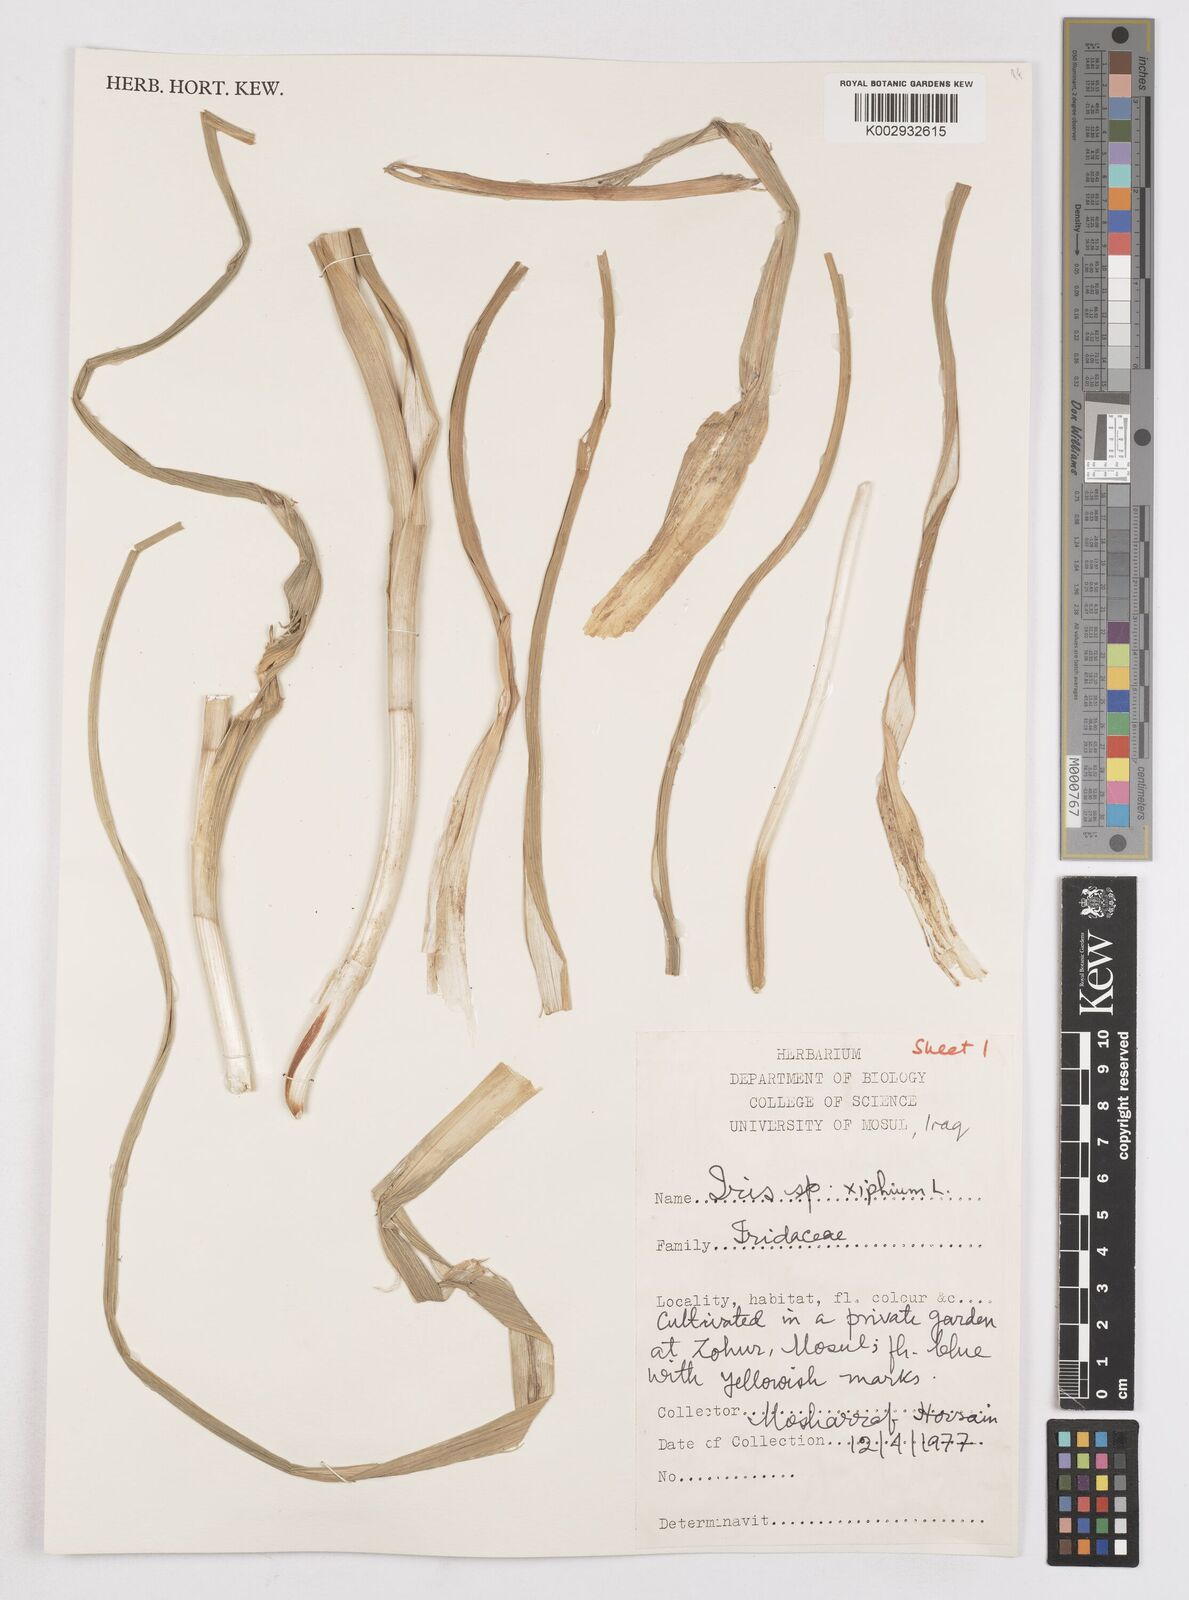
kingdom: Plantae
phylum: Tracheophyta
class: Liliopsida
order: Asparagales
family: Iridaceae
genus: Iris
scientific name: Iris xiphium
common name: Spanish iris
